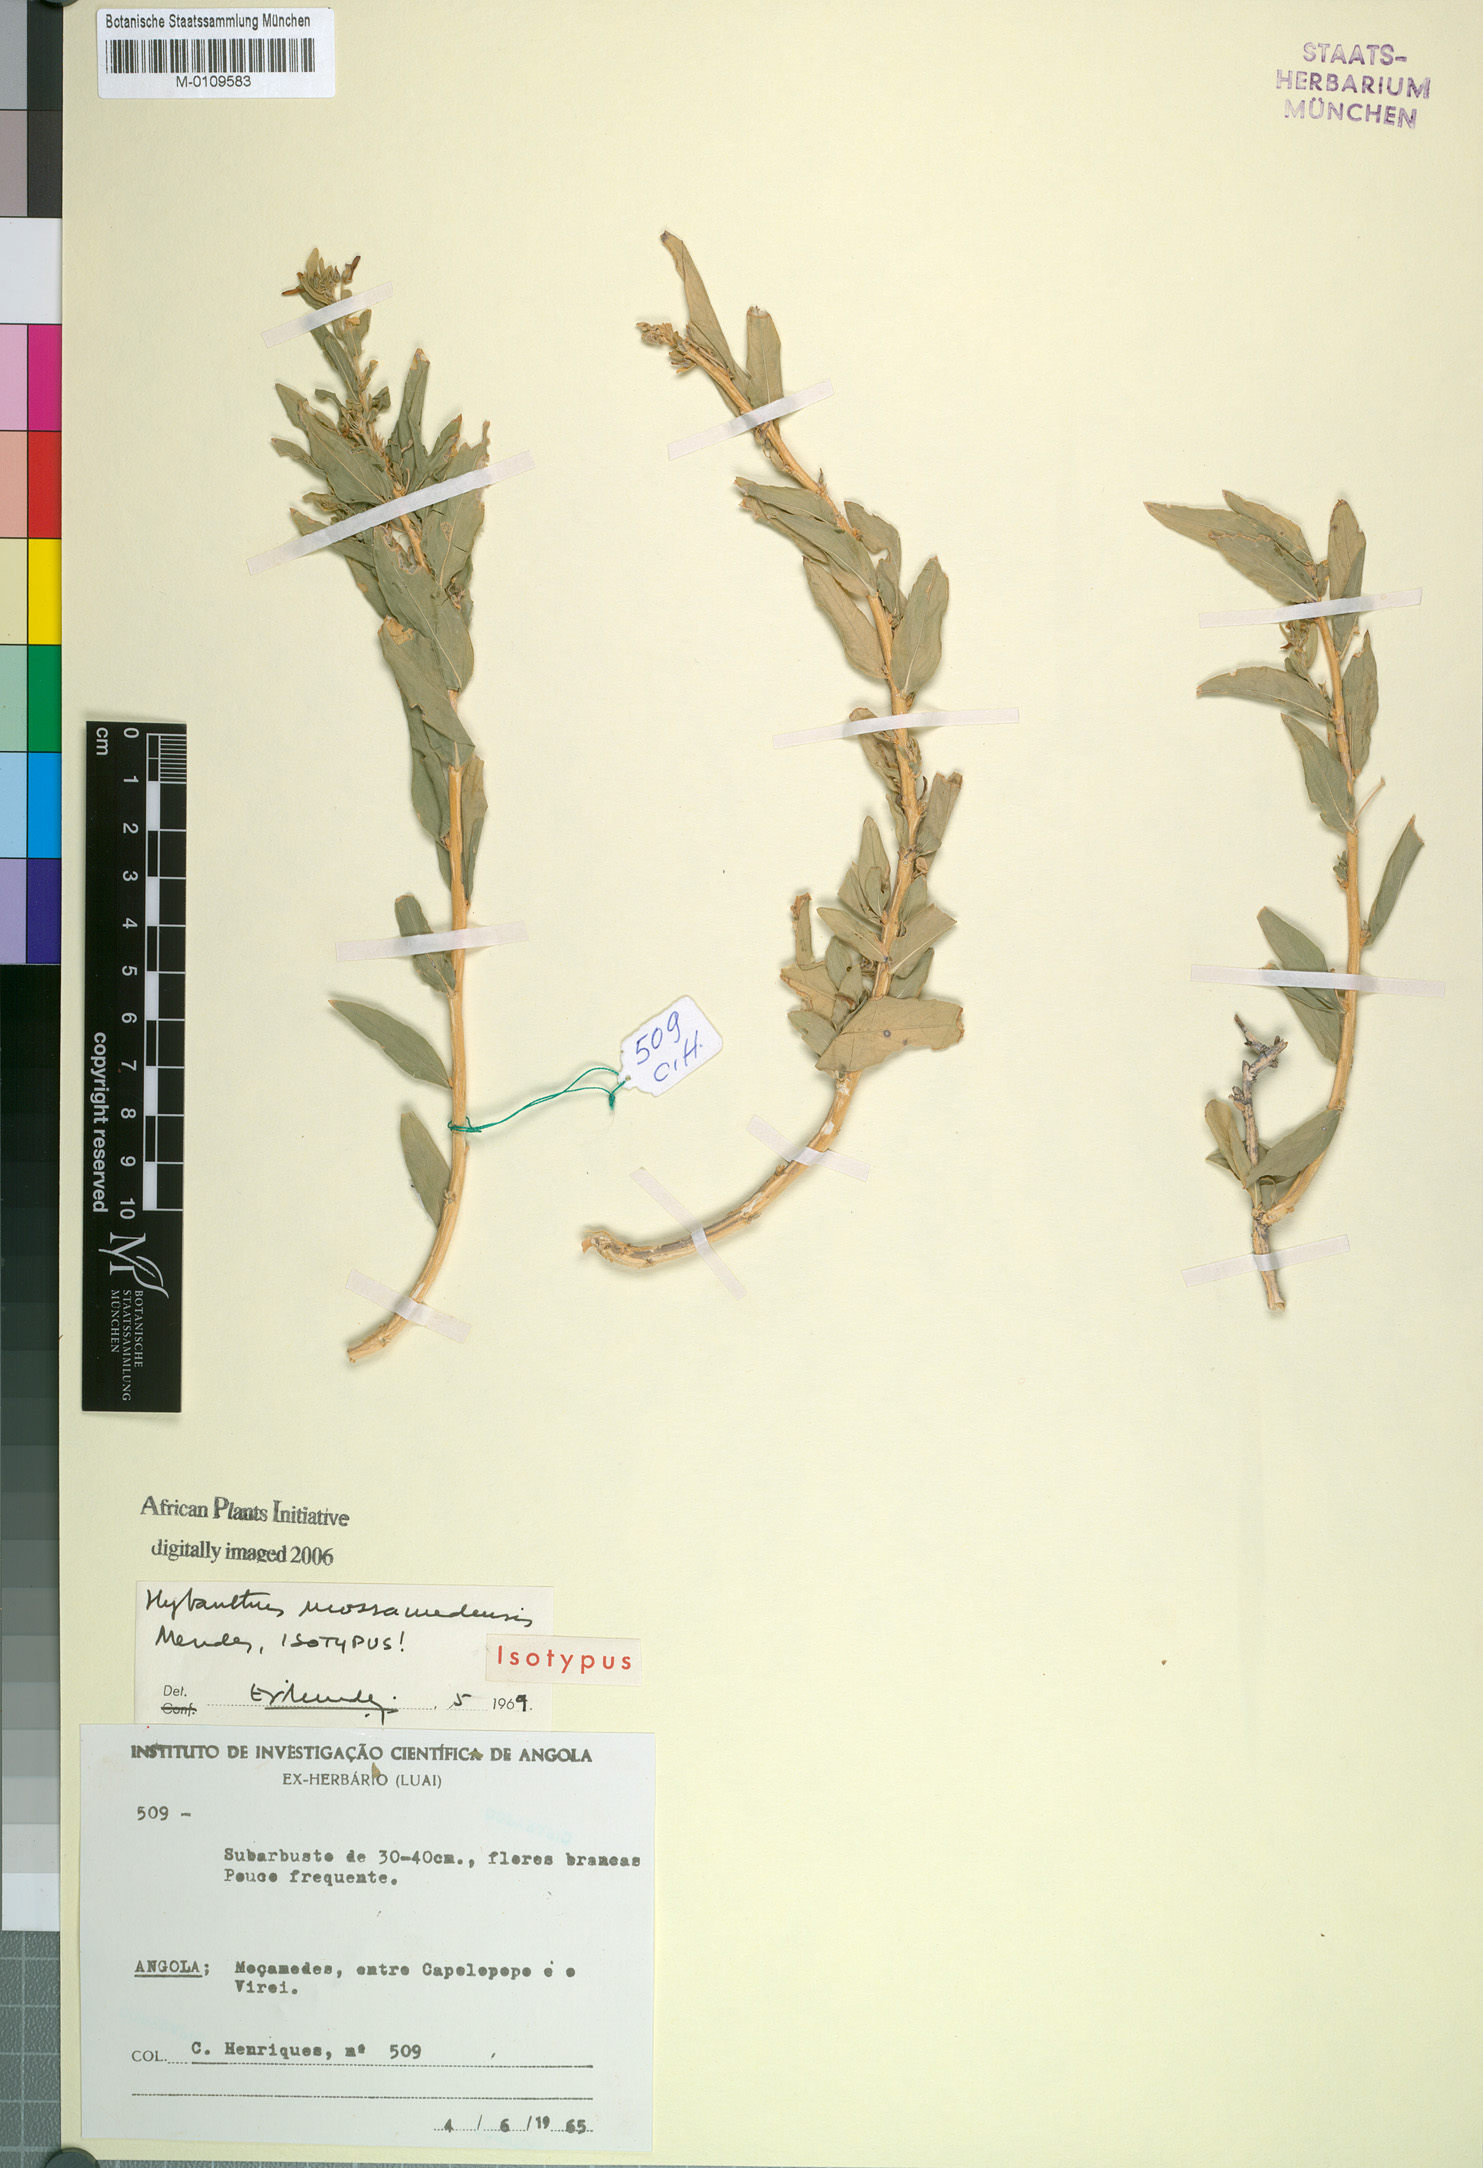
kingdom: Plantae
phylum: Tracheophyta
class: Magnoliopsida
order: Malpighiales
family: Violaceae
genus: Hybanthus
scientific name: Hybanthus mossamedensis
